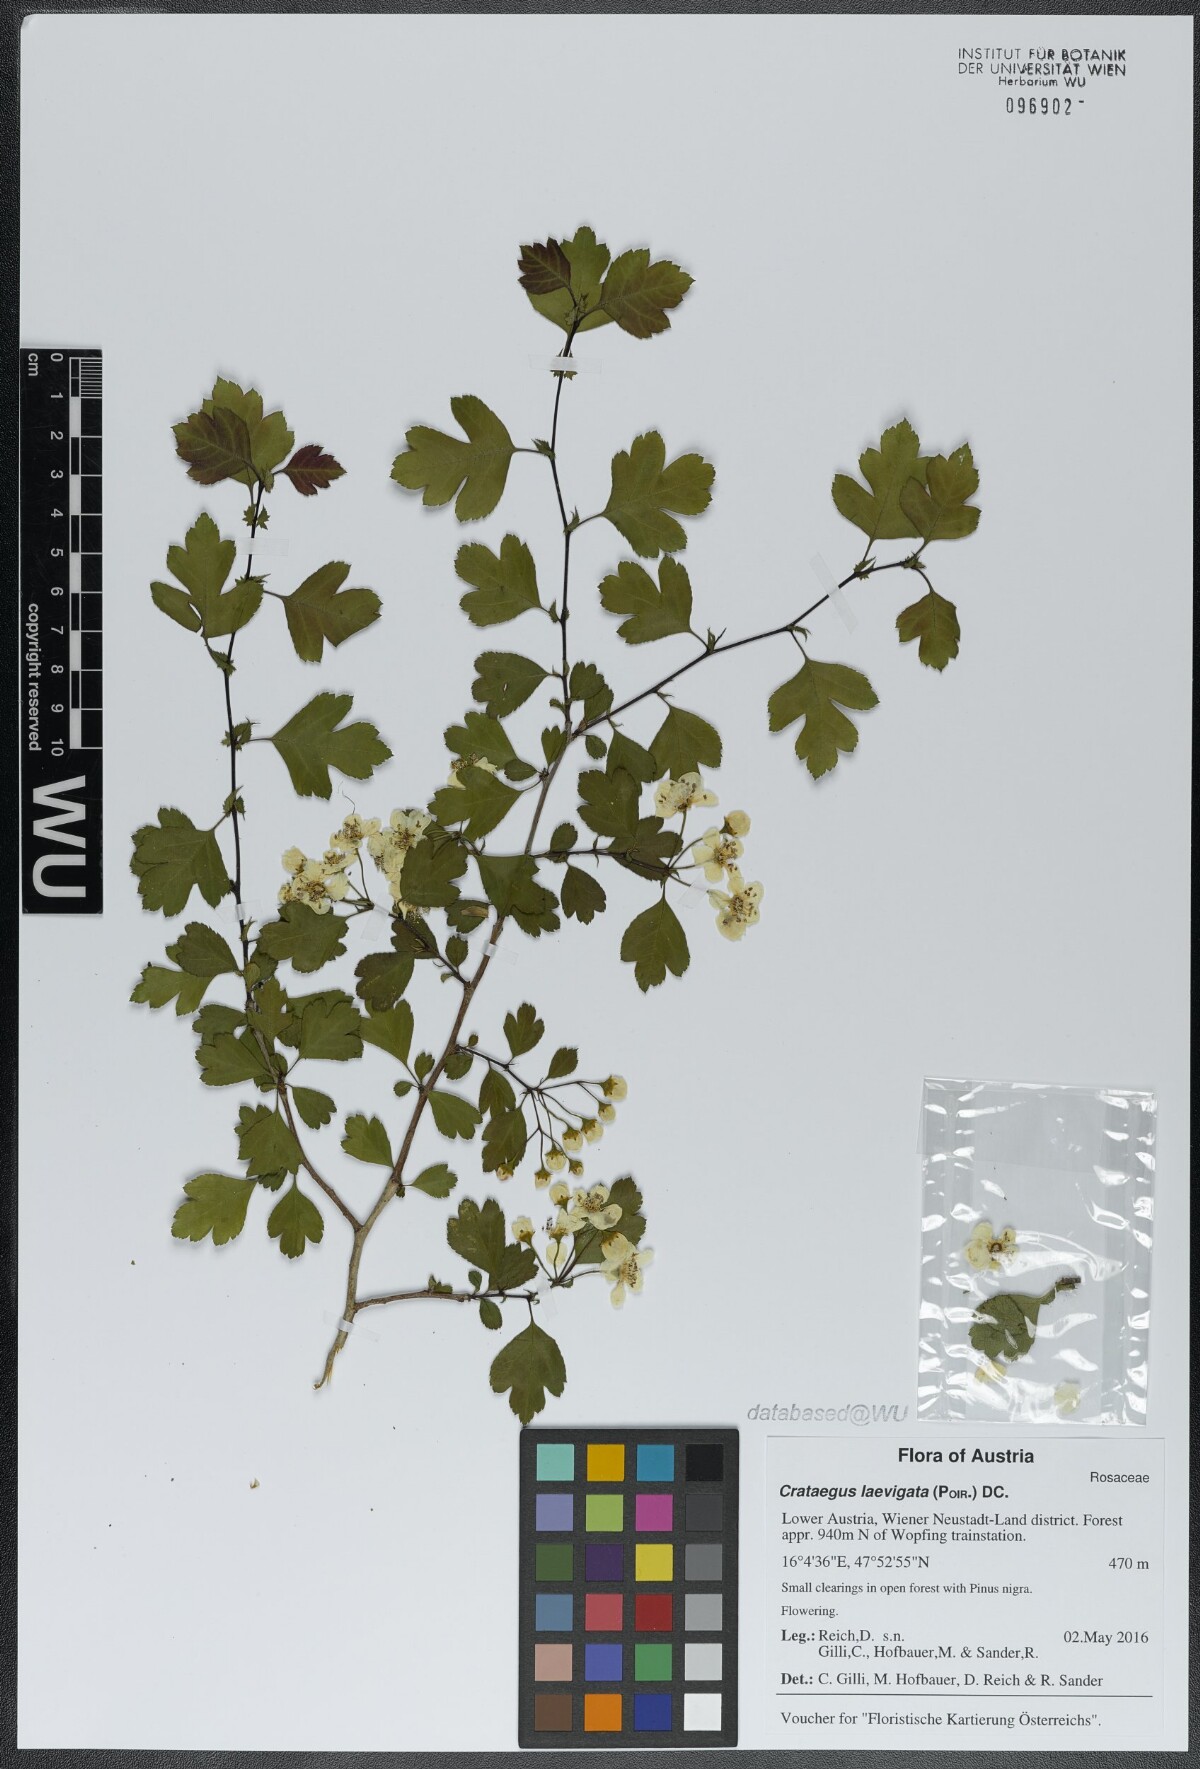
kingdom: Plantae
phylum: Tracheophyta
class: Magnoliopsida
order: Rosales
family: Rosaceae
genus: Crataegus
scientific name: Crataegus laevigata
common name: Midland hawthorn
